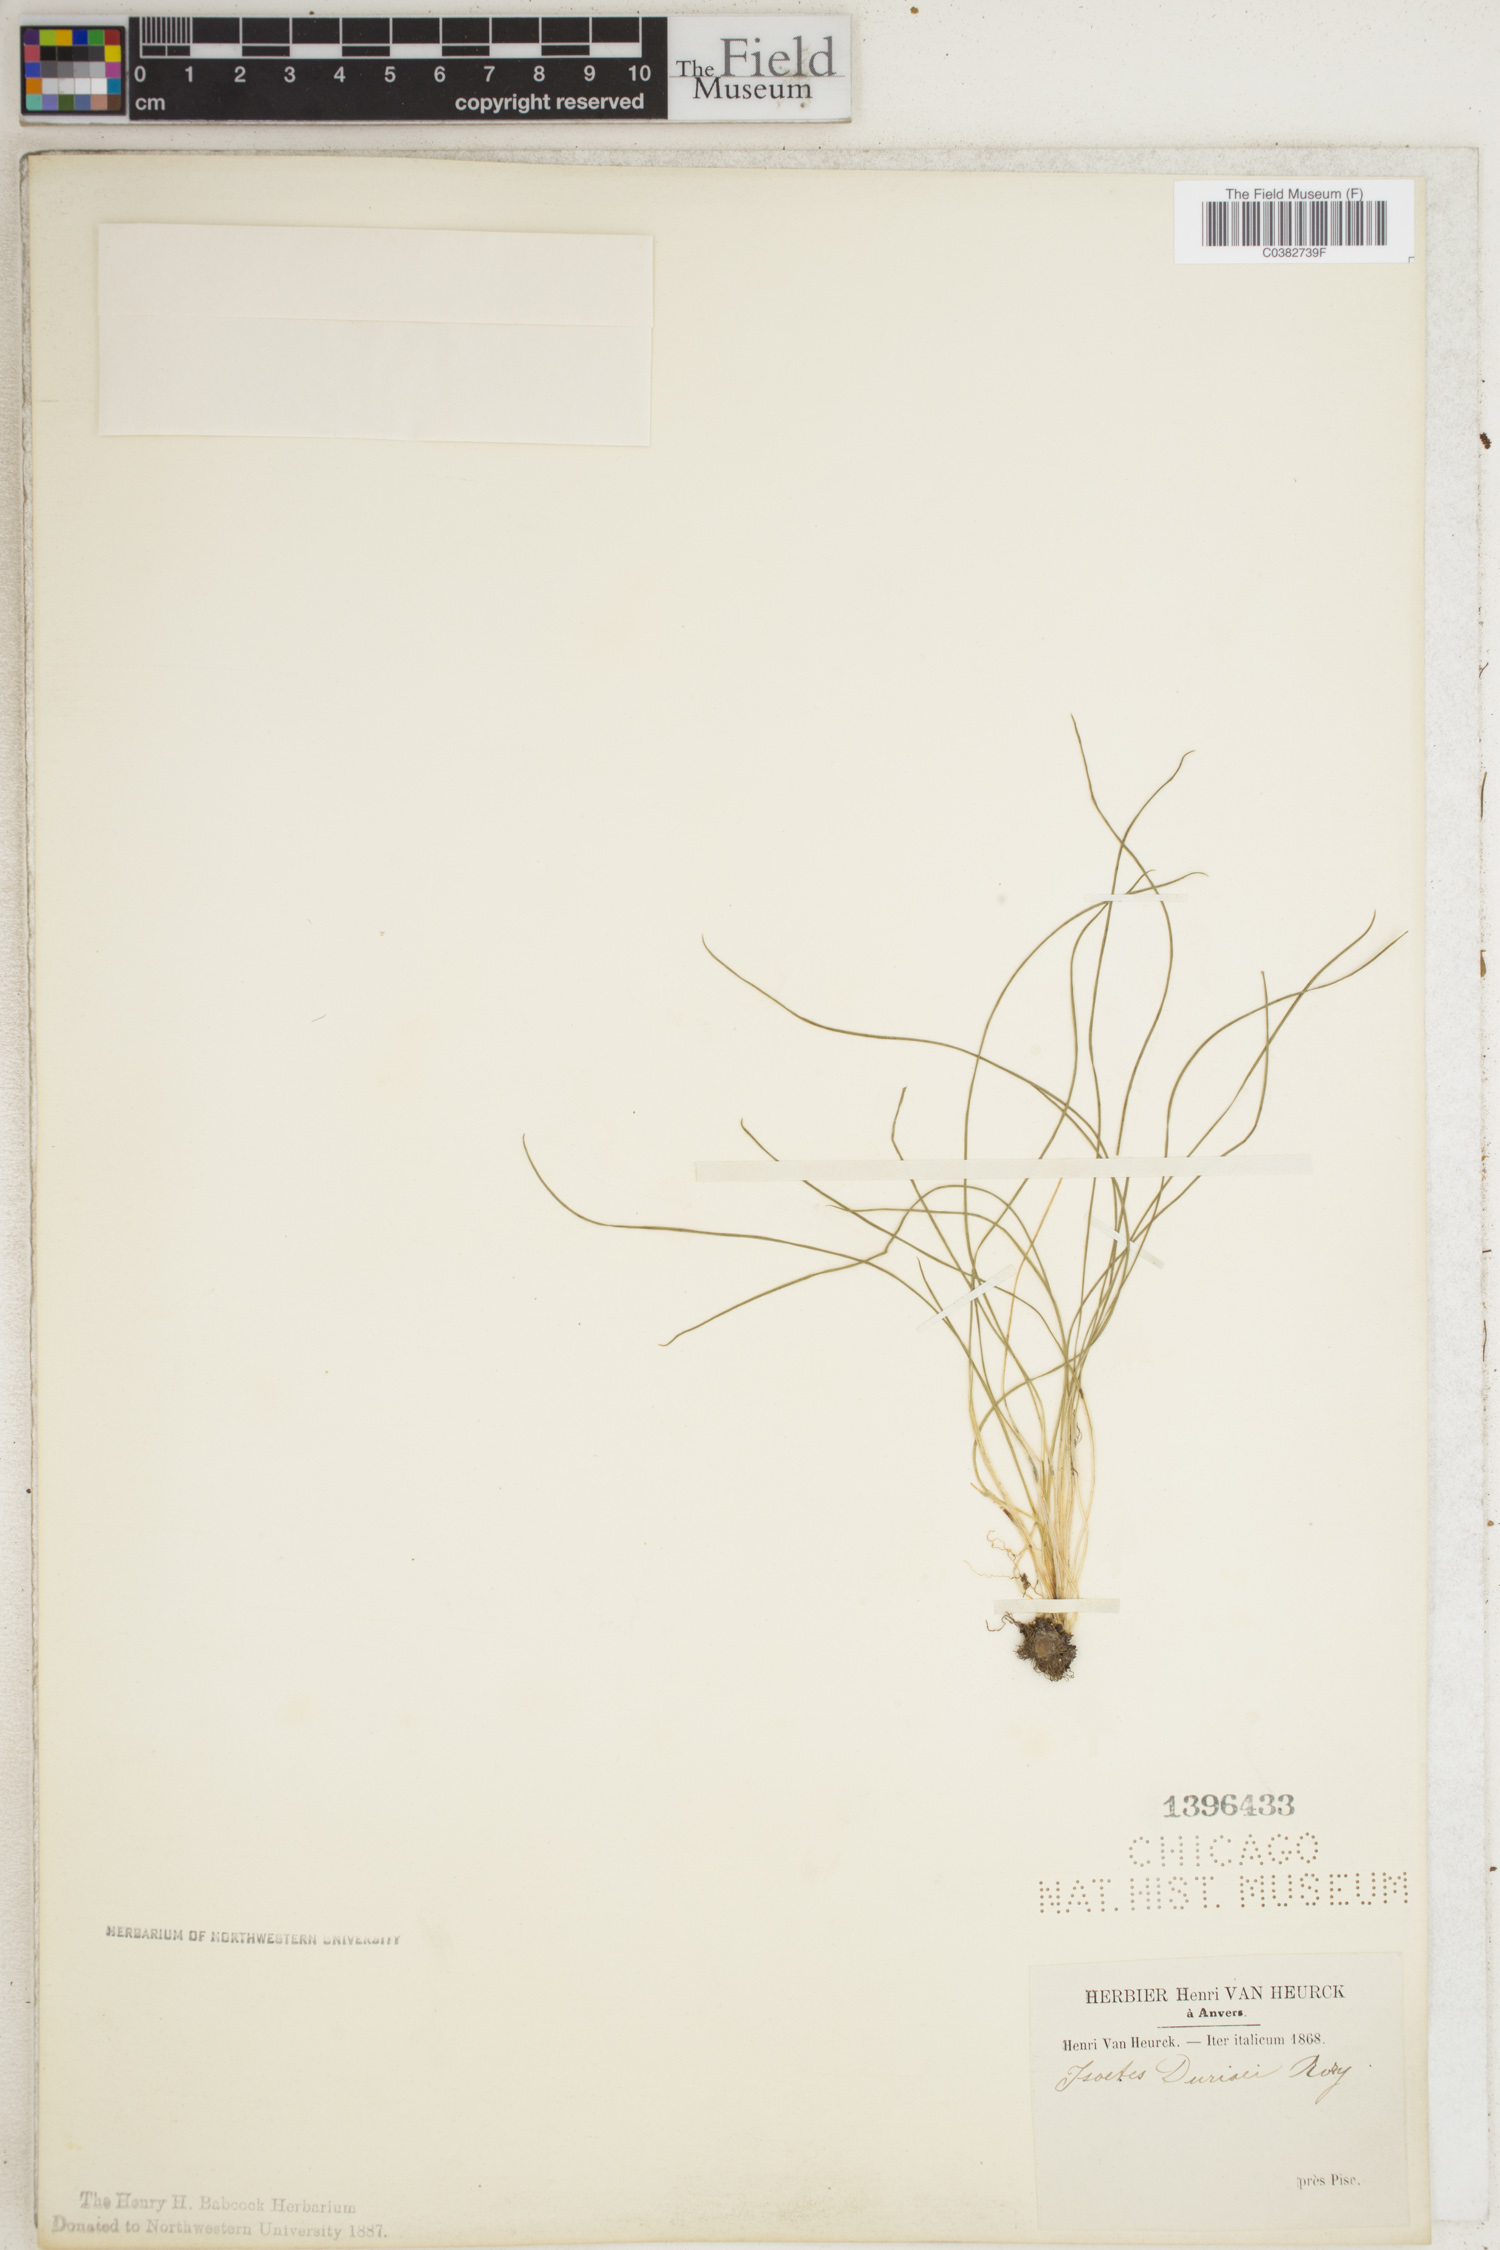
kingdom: Plantae
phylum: Tracheophyta
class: Lycopodiopsida
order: Isoetales
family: Isoetaceae
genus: Isoetes
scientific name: Isoetes duriei
